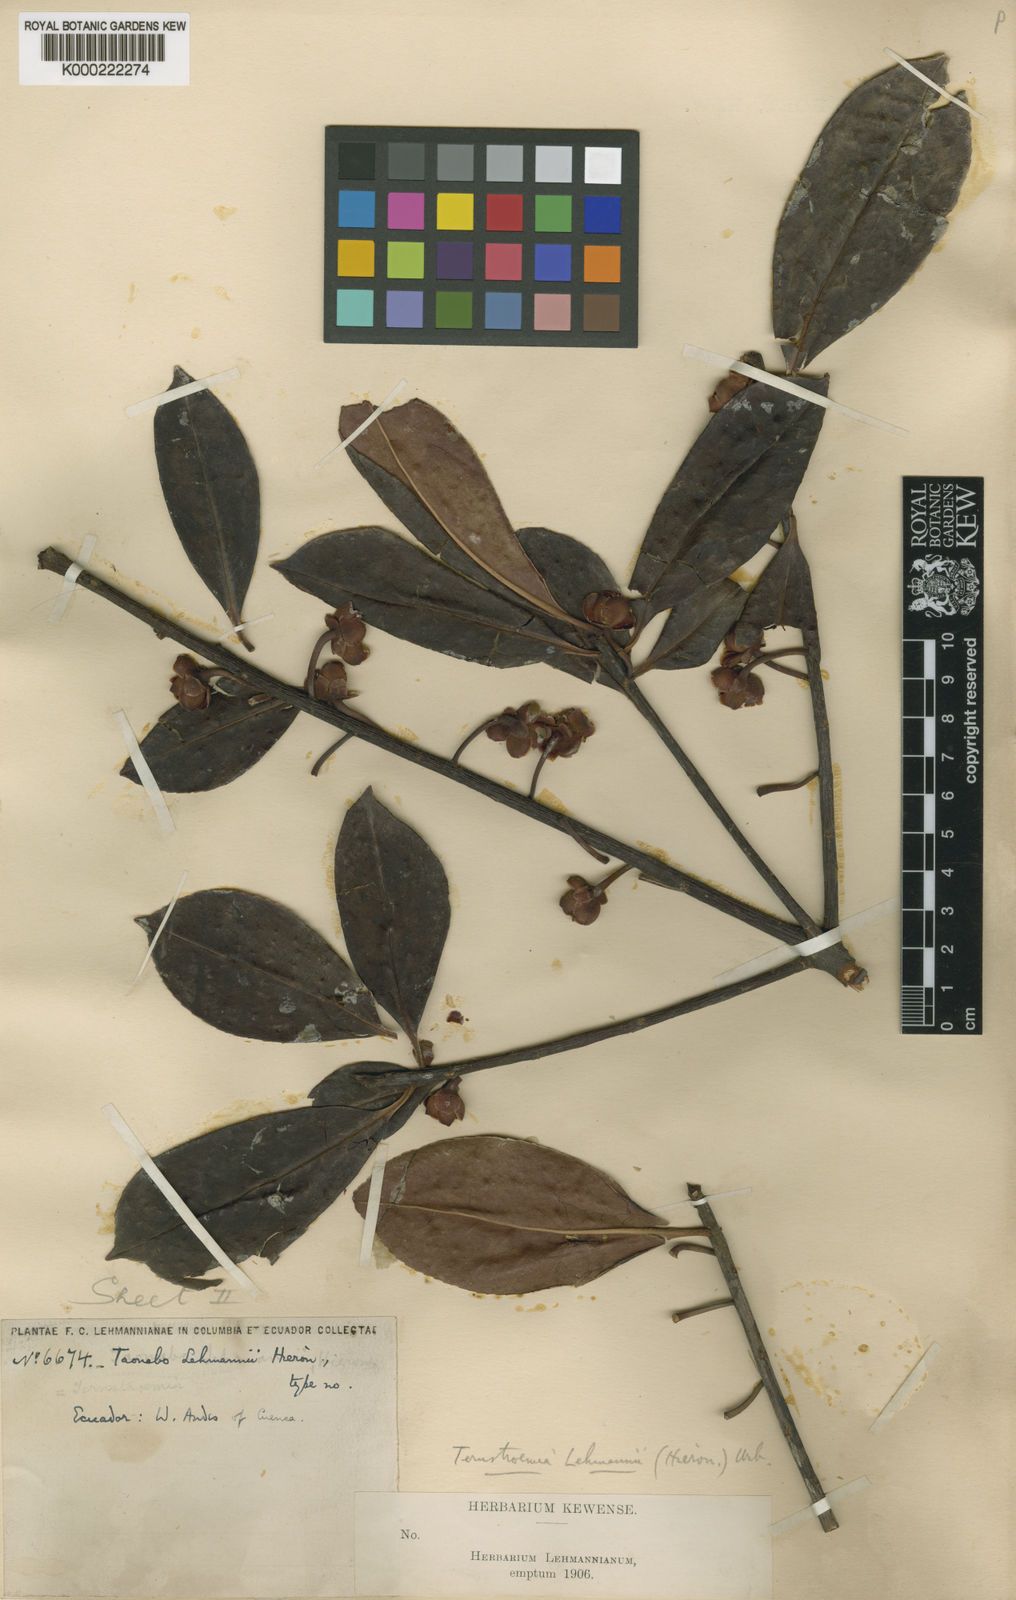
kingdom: Plantae
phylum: Tracheophyta
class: Magnoliopsida
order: Ericales
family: Pentaphylacaceae
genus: Ternstroemia
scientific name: Ternstroemia lehmannii
